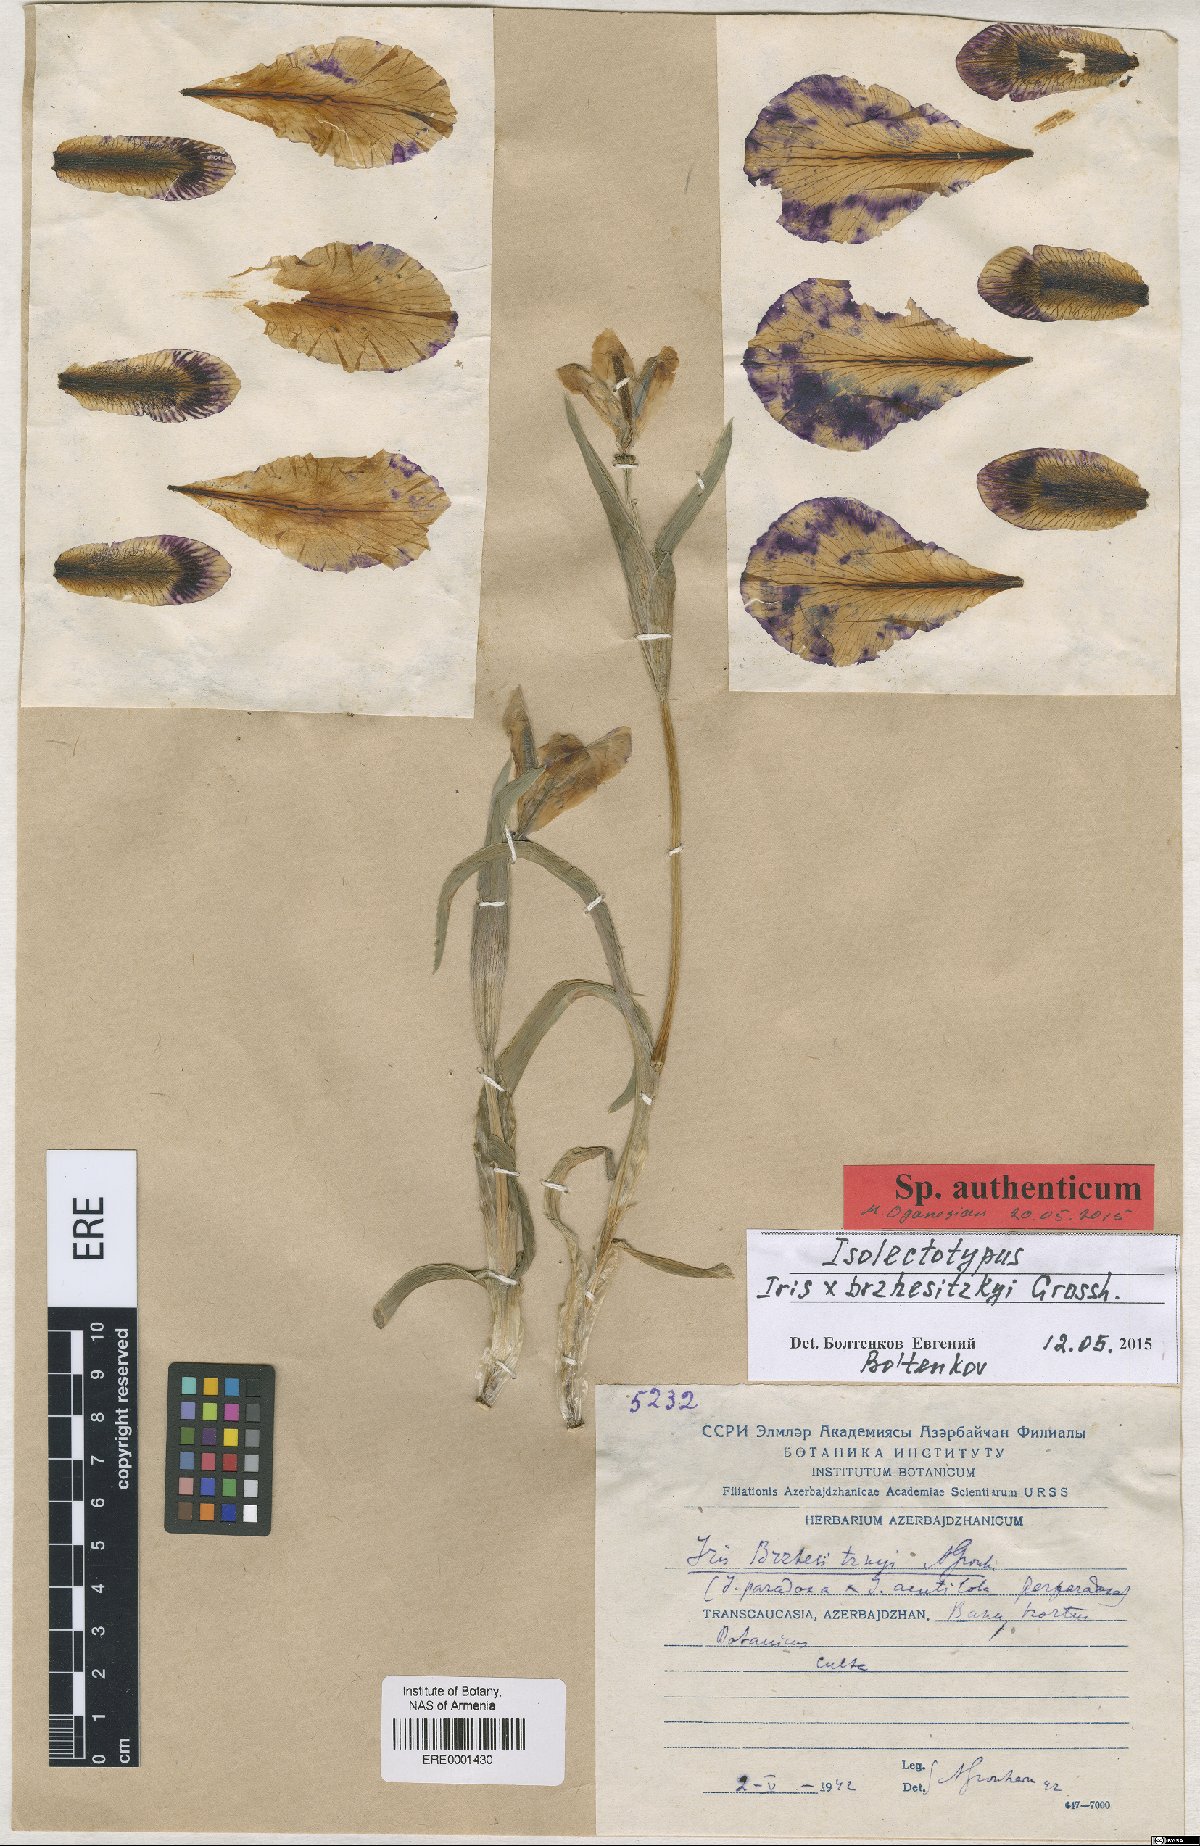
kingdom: Plantae
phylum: Tracheophyta
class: Liliopsida
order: Asparagales
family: Iridaceae
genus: Iris
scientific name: Iris brzhezitzky
